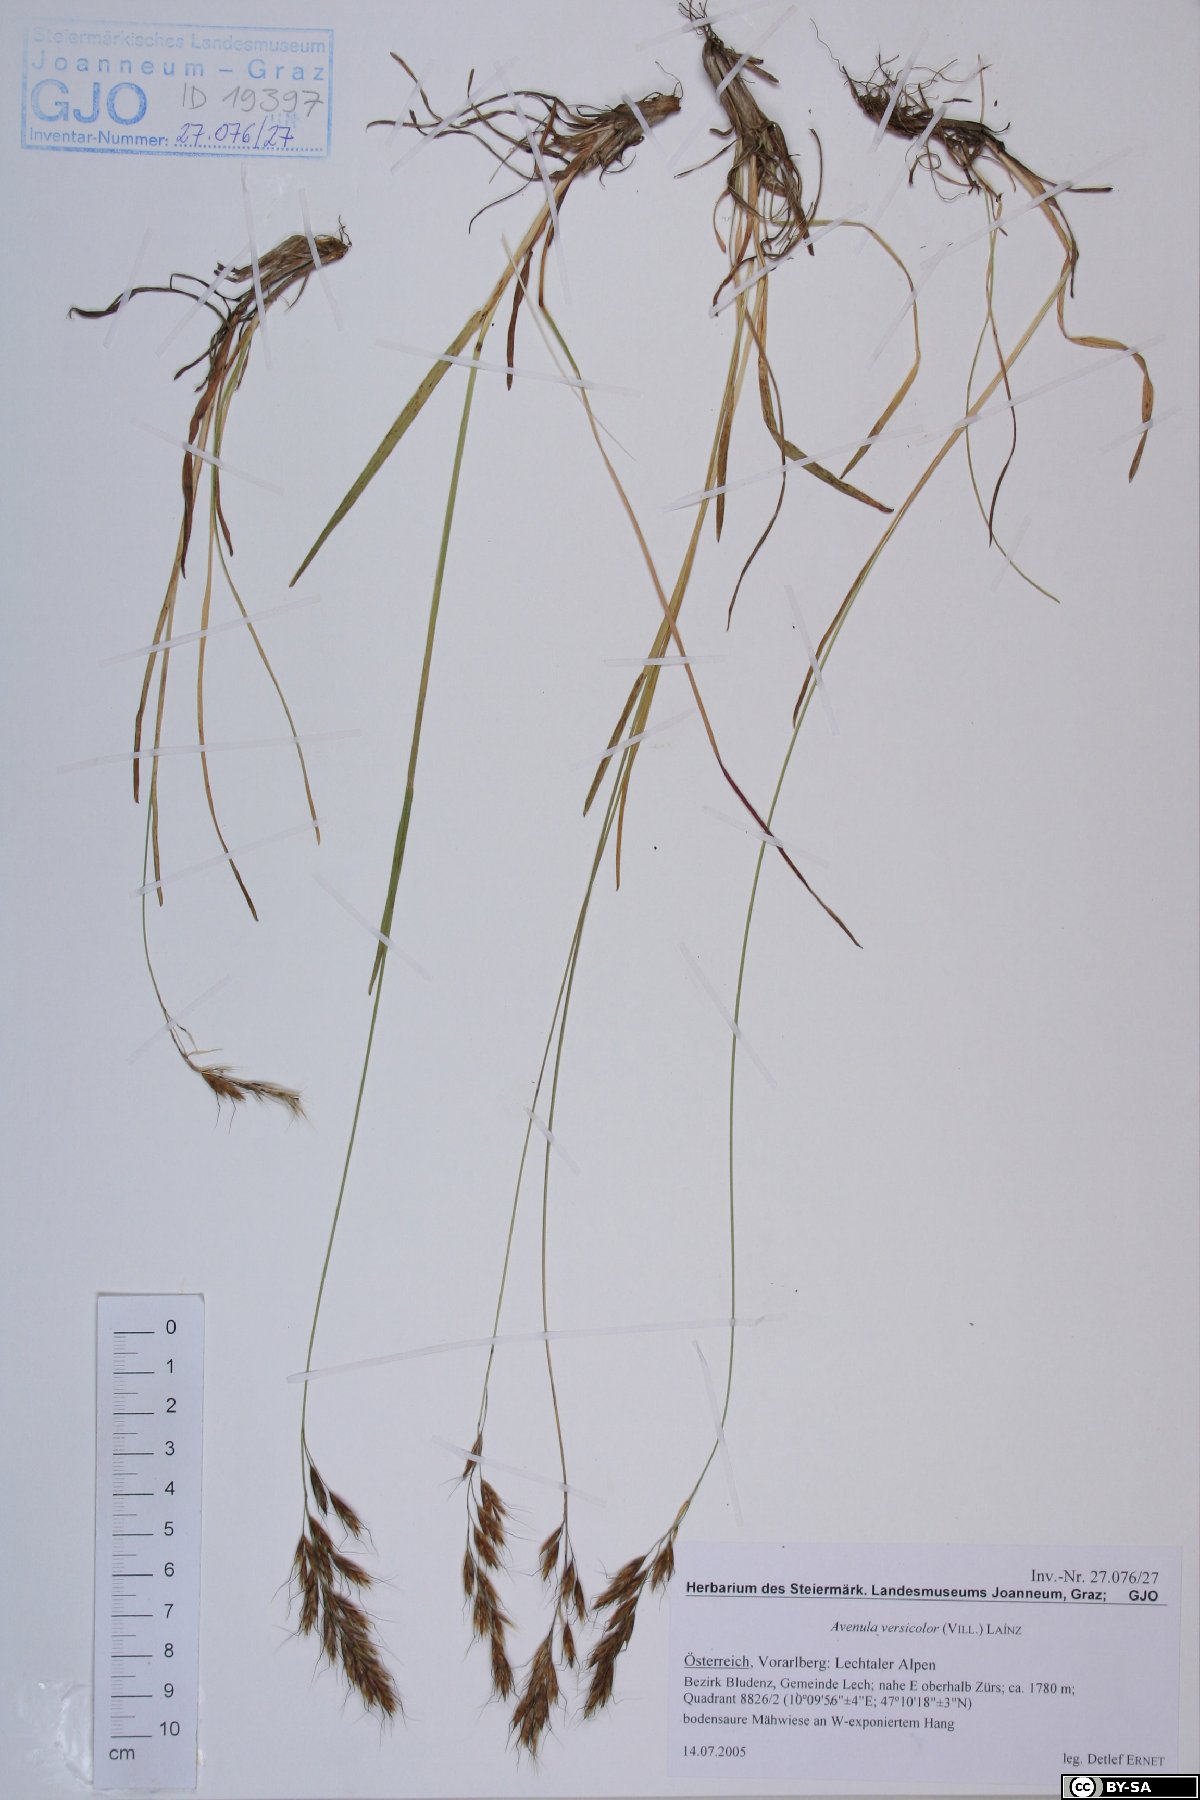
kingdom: Plantae
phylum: Tracheophyta
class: Liliopsida
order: Poales
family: Poaceae
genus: Helictochloa
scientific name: Helictochloa versicolor
